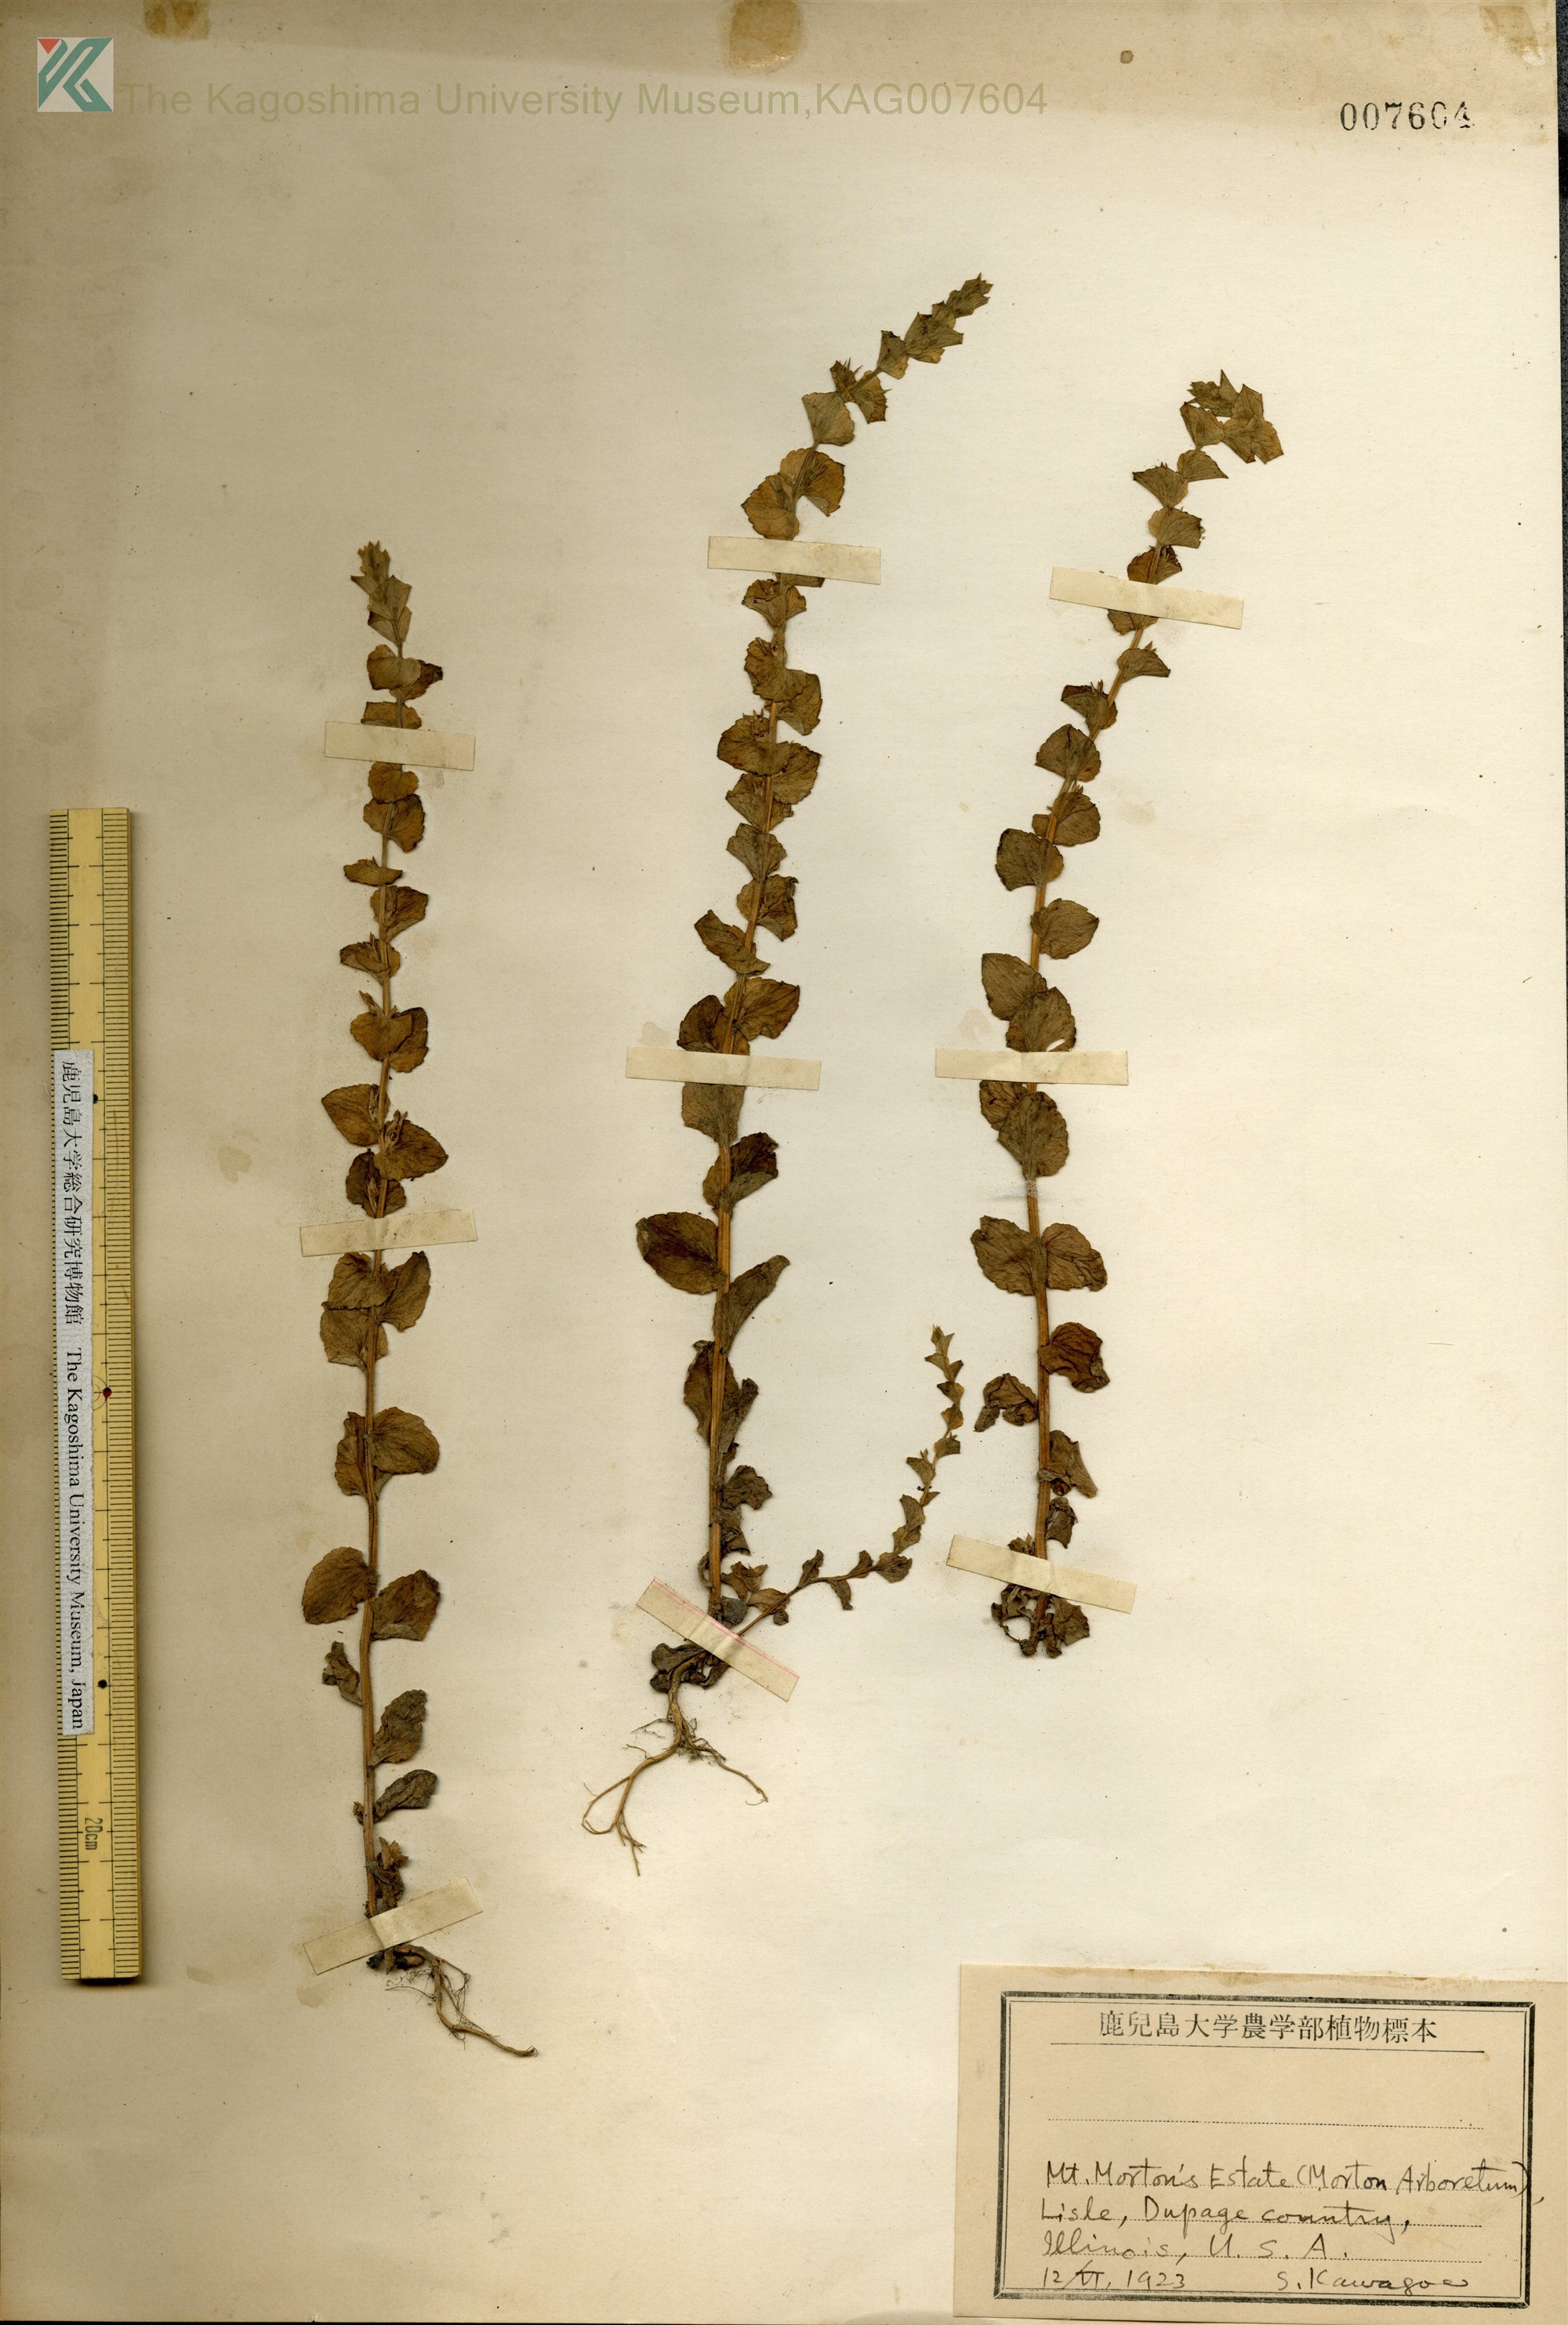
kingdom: Plantae
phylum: Tracheophyta
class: Magnoliopsida
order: Asterales
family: Campanulaceae
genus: Triodanis
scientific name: Triodanis perfoliata
